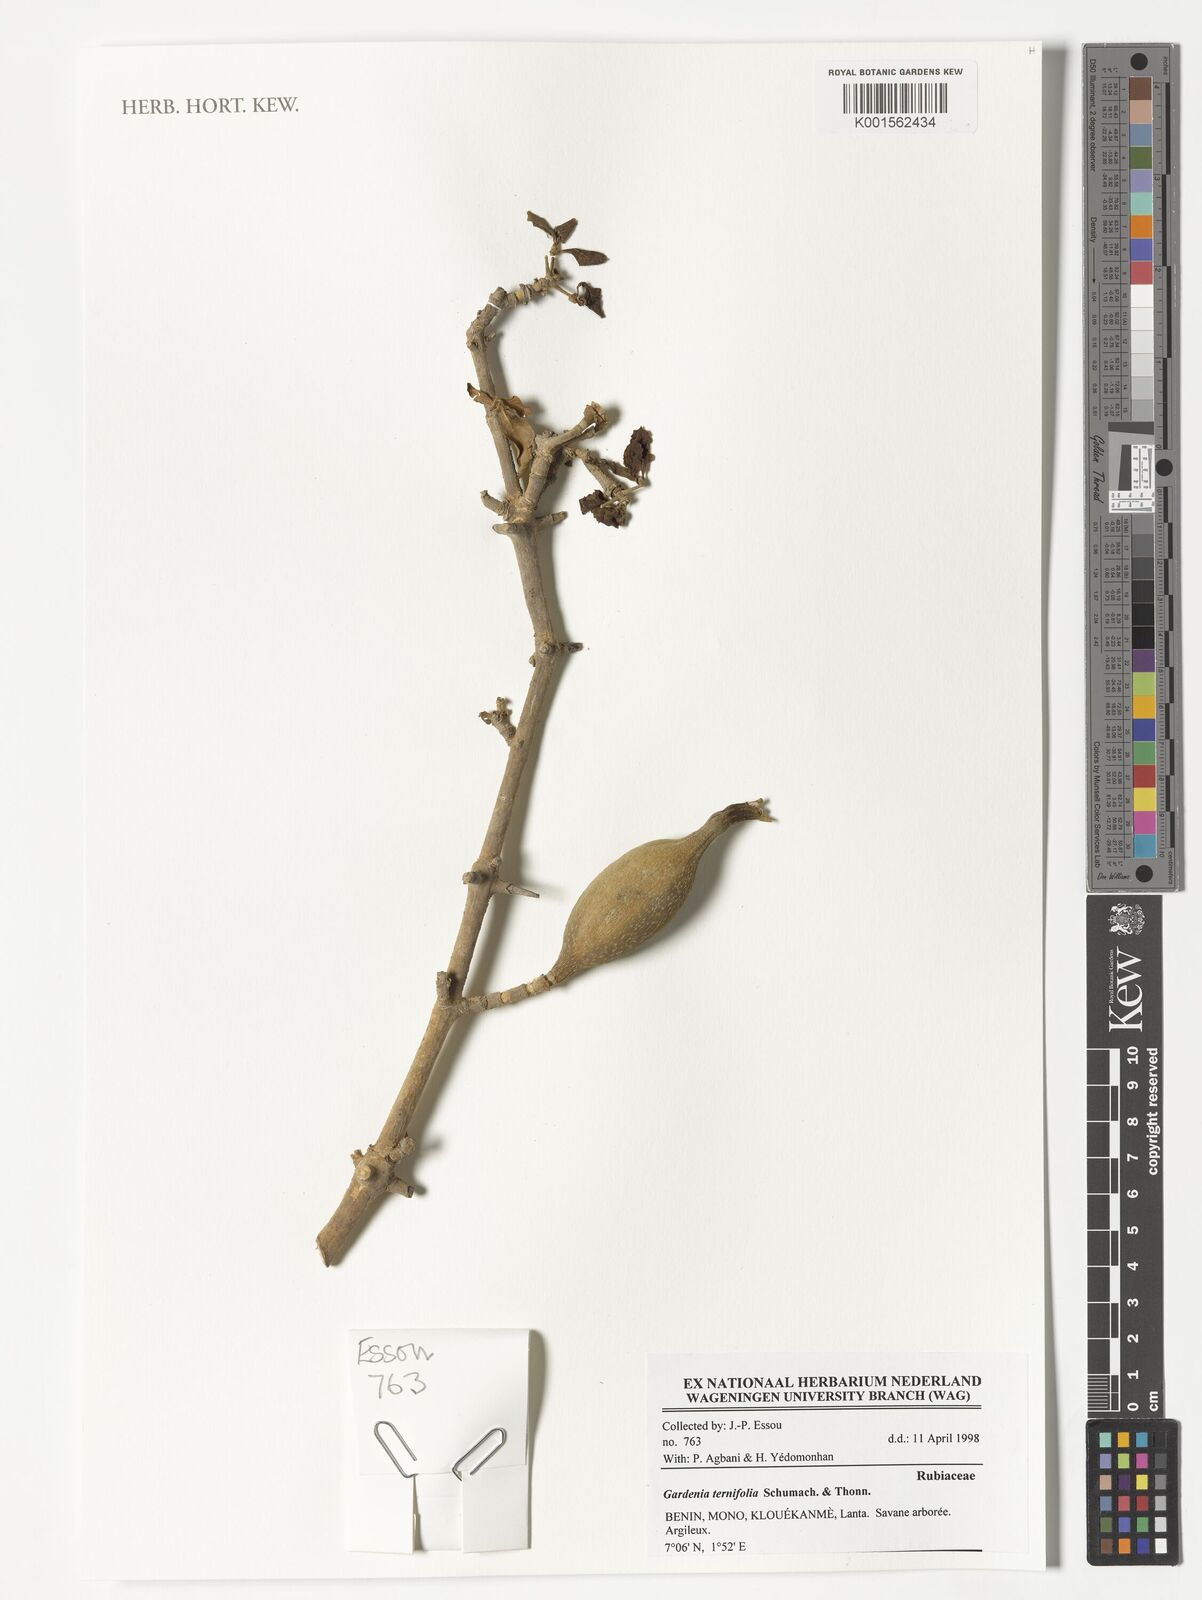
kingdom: Plantae
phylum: Tracheophyta
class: Magnoliopsida
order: Gentianales
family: Rubiaceae
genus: Gardenia
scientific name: Gardenia ternifolia
